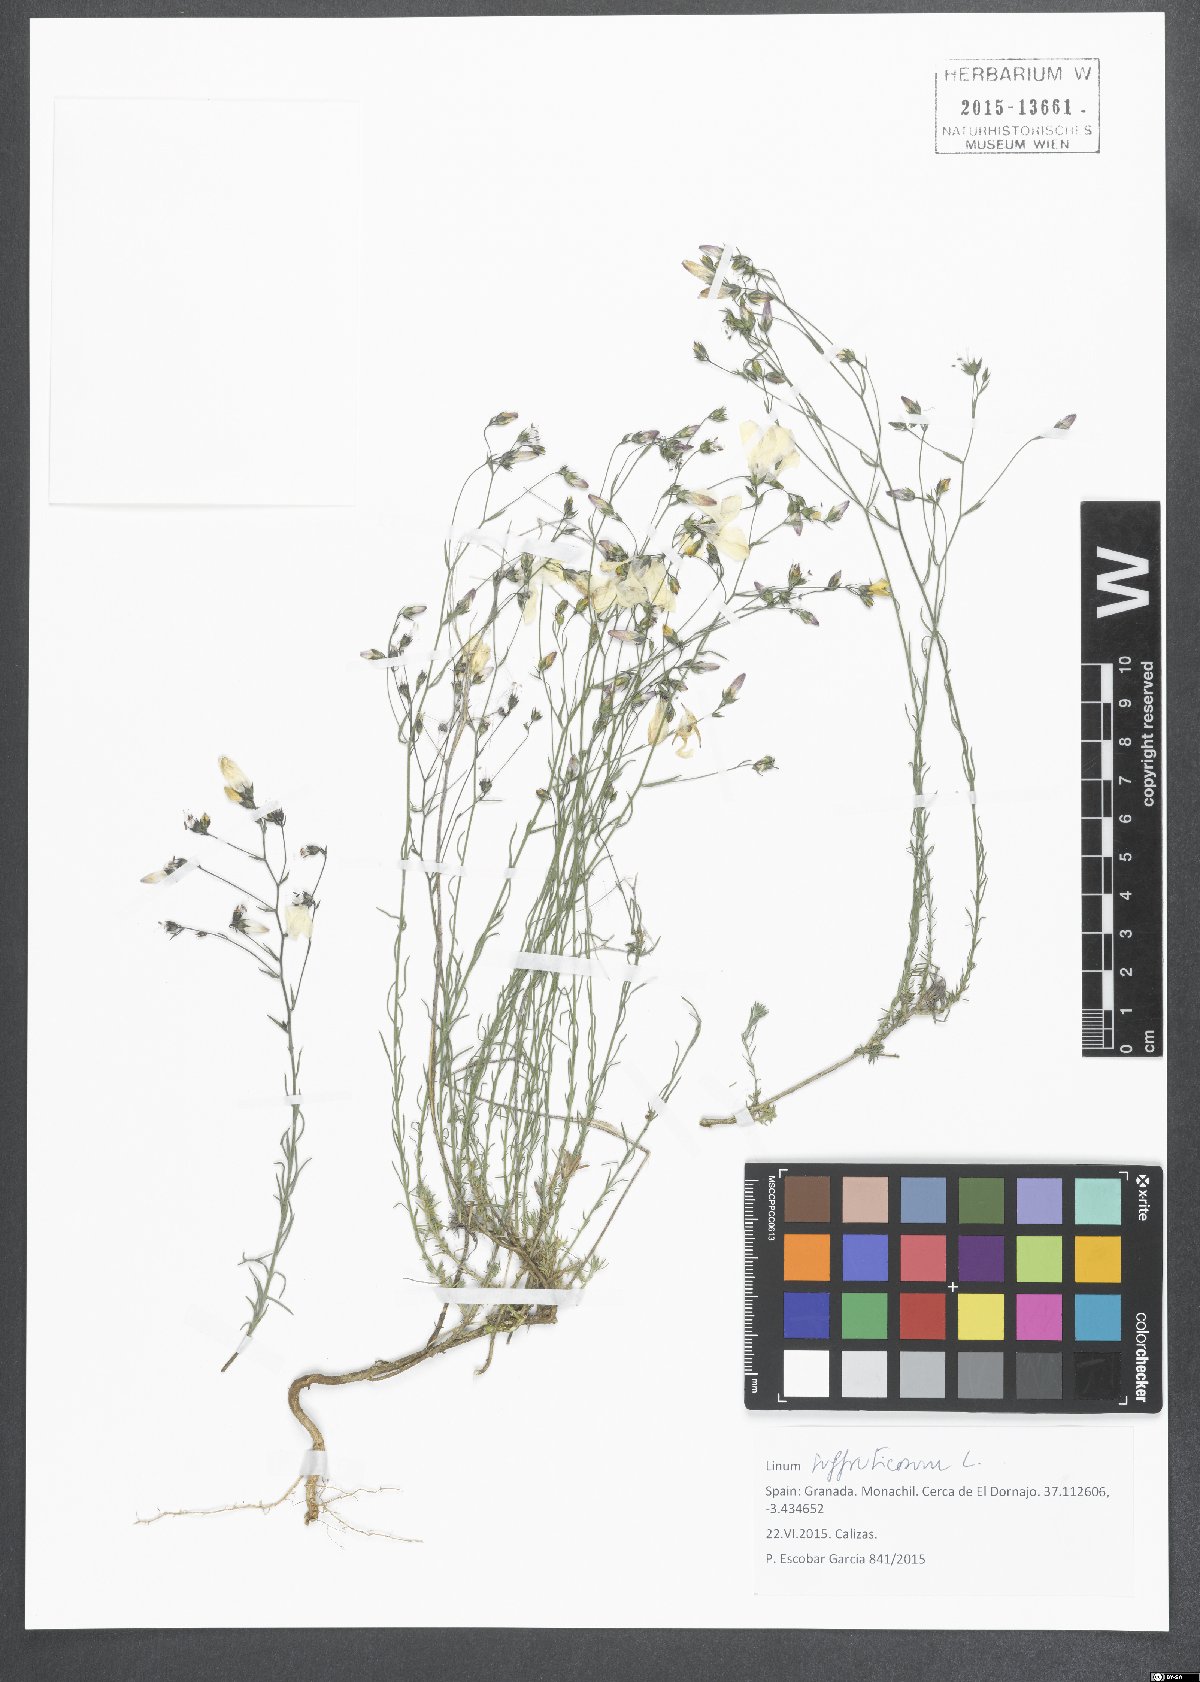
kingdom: Plantae
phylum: Tracheophyta
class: Magnoliopsida
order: Malpighiales
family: Linaceae
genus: Linum
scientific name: Linum suffruticosum
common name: White flax
